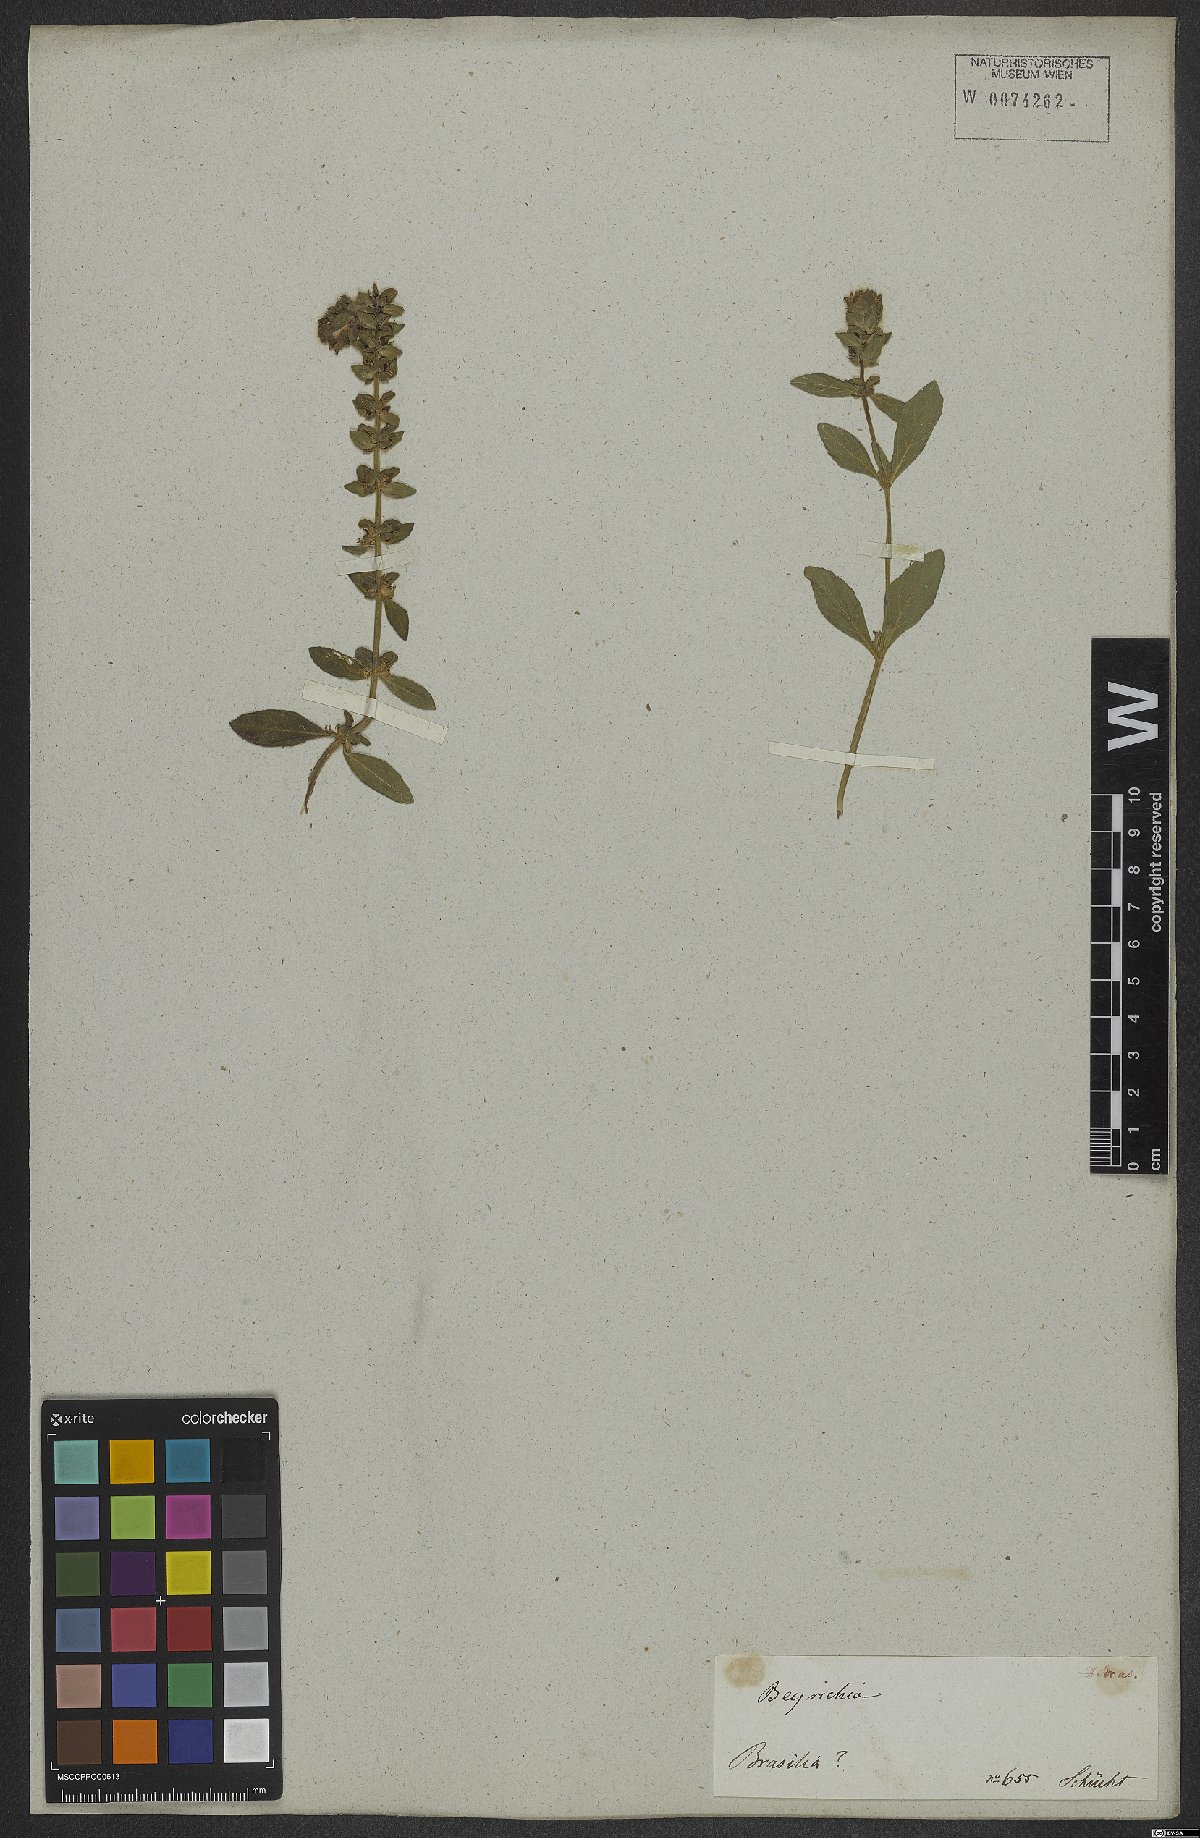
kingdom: Plantae
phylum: Tracheophyta
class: Magnoliopsida
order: Lamiales
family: Plantaginaceae
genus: Matourea
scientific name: Matourea
